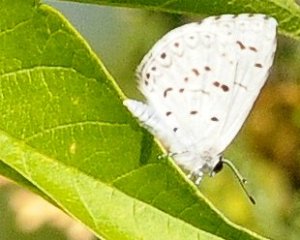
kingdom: Animalia
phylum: Arthropoda
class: Insecta
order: Lepidoptera
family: Lycaenidae
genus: Celastrina
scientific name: Celastrina serotina
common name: Cherry Gall Azure
